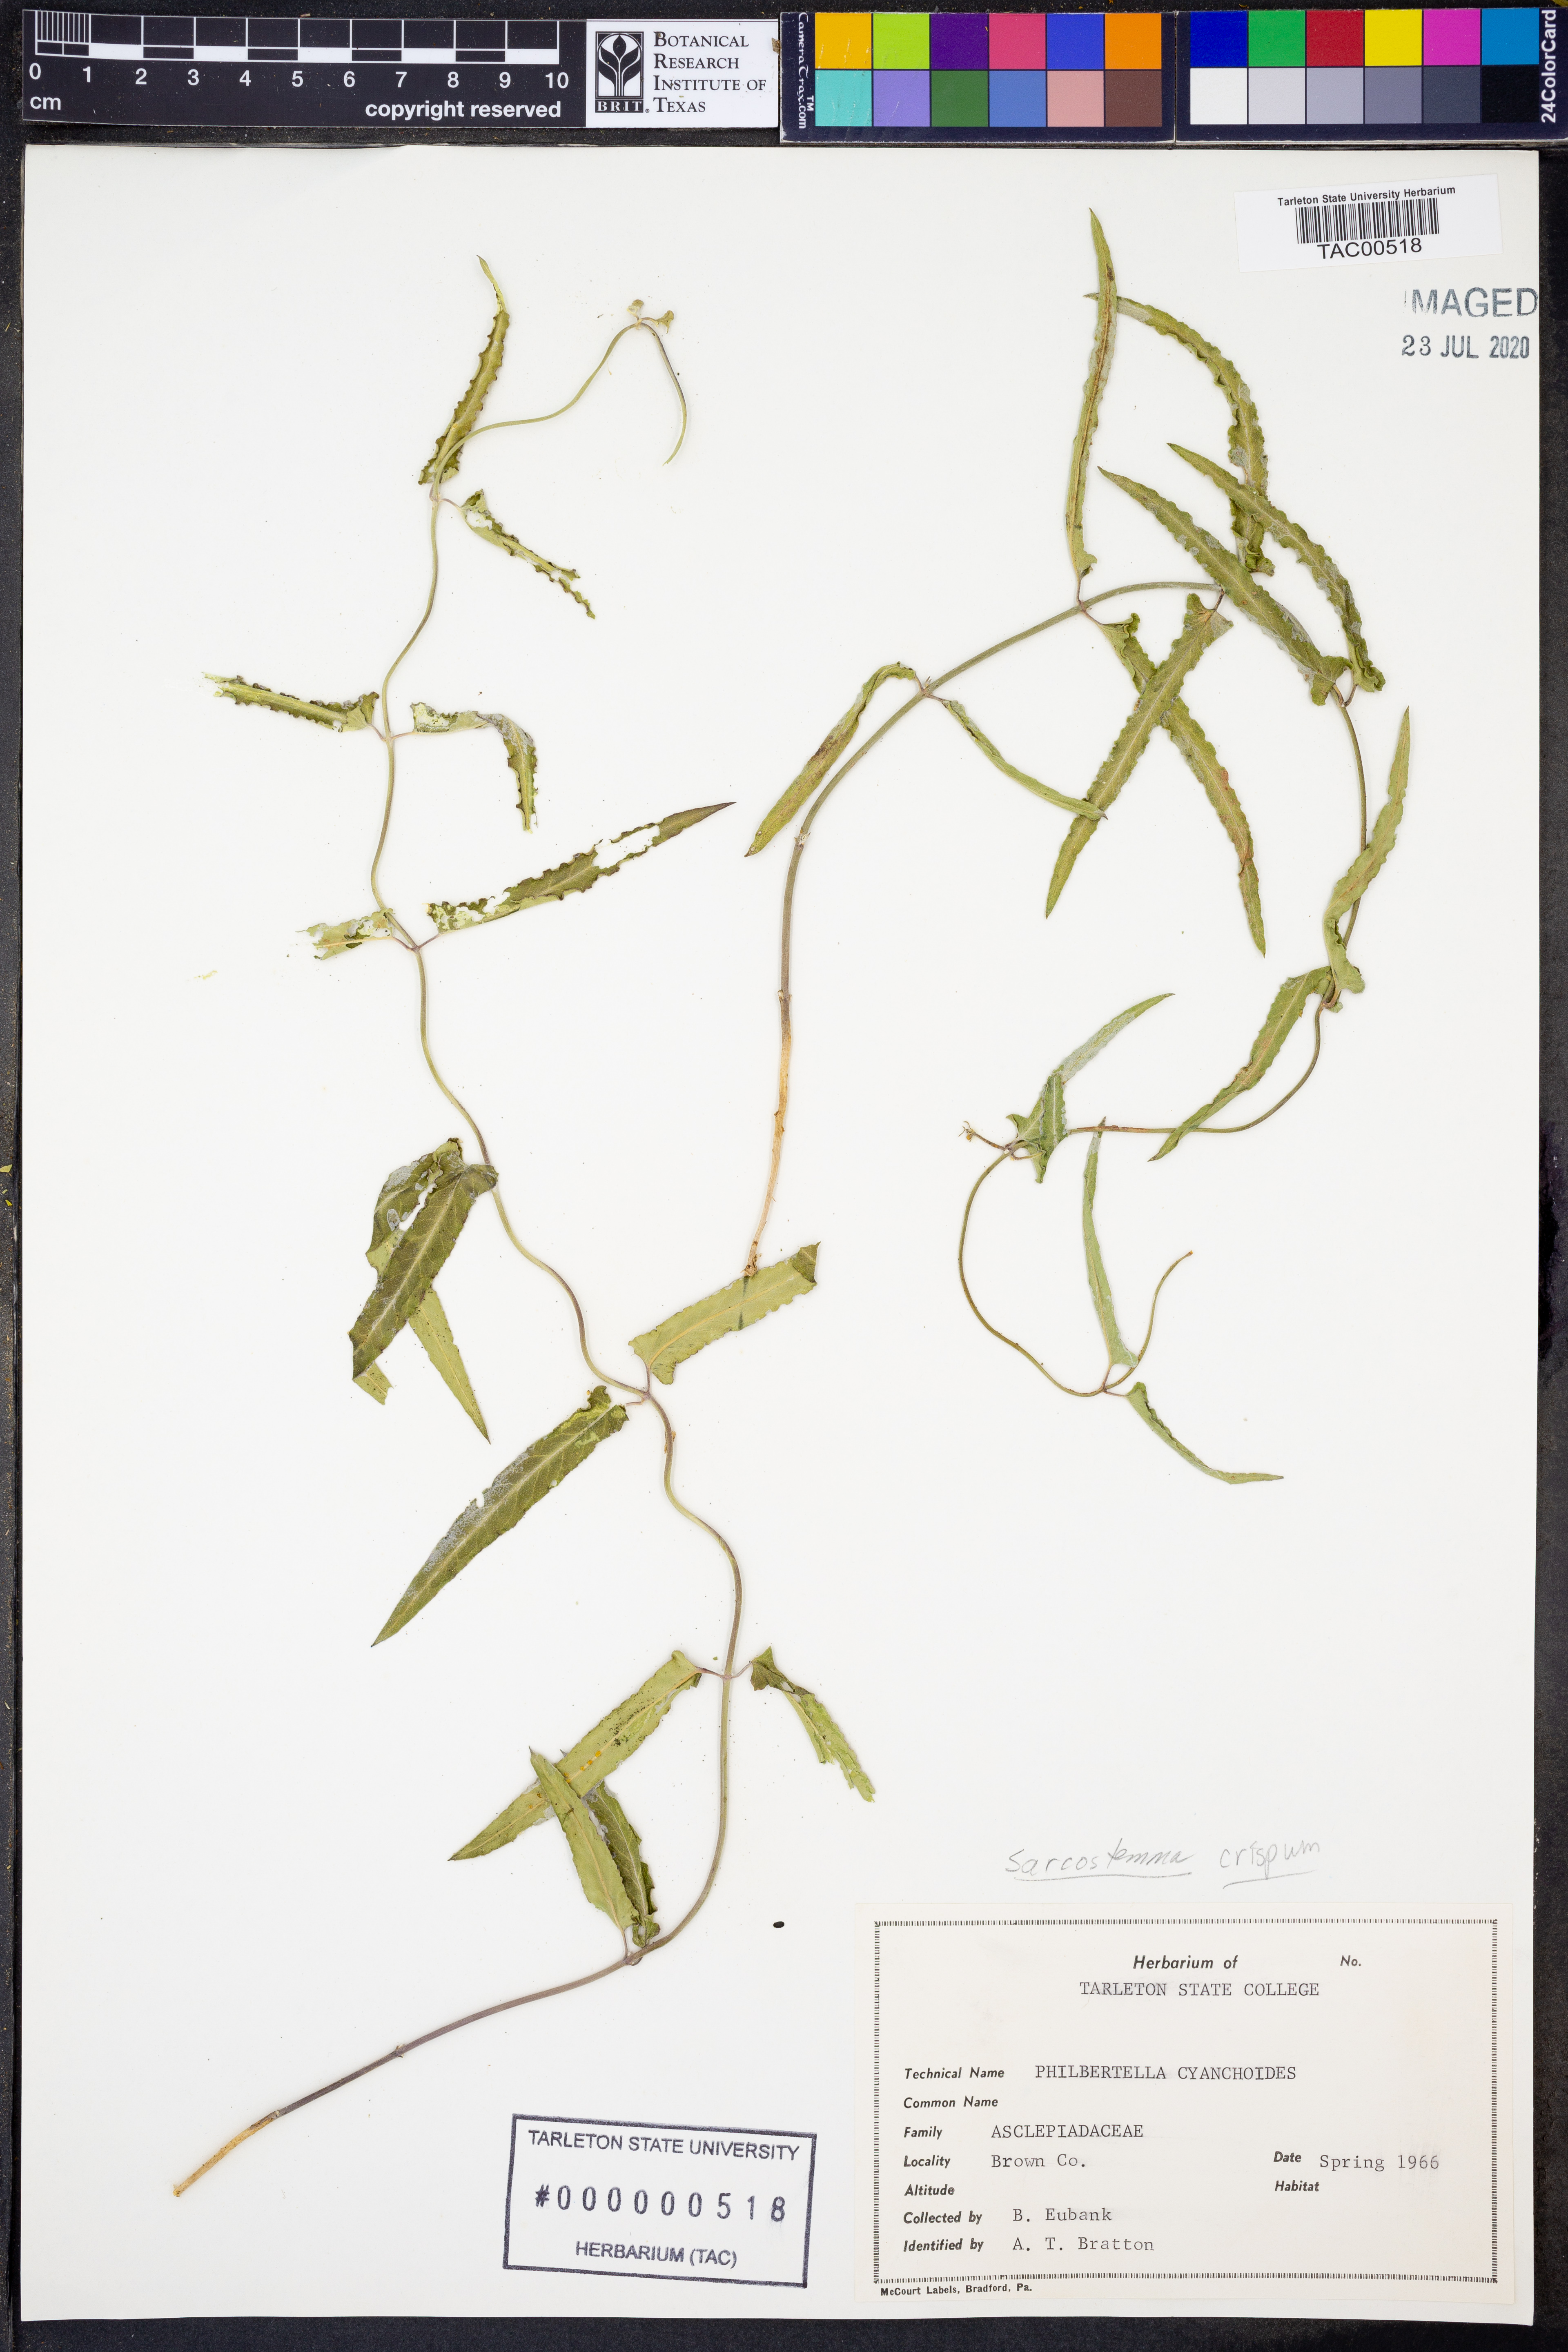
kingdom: Plantae
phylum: Tracheophyta
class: Magnoliopsida
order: Gentianales
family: Apocynaceae
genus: Funastrum
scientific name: Funastrum crispum
